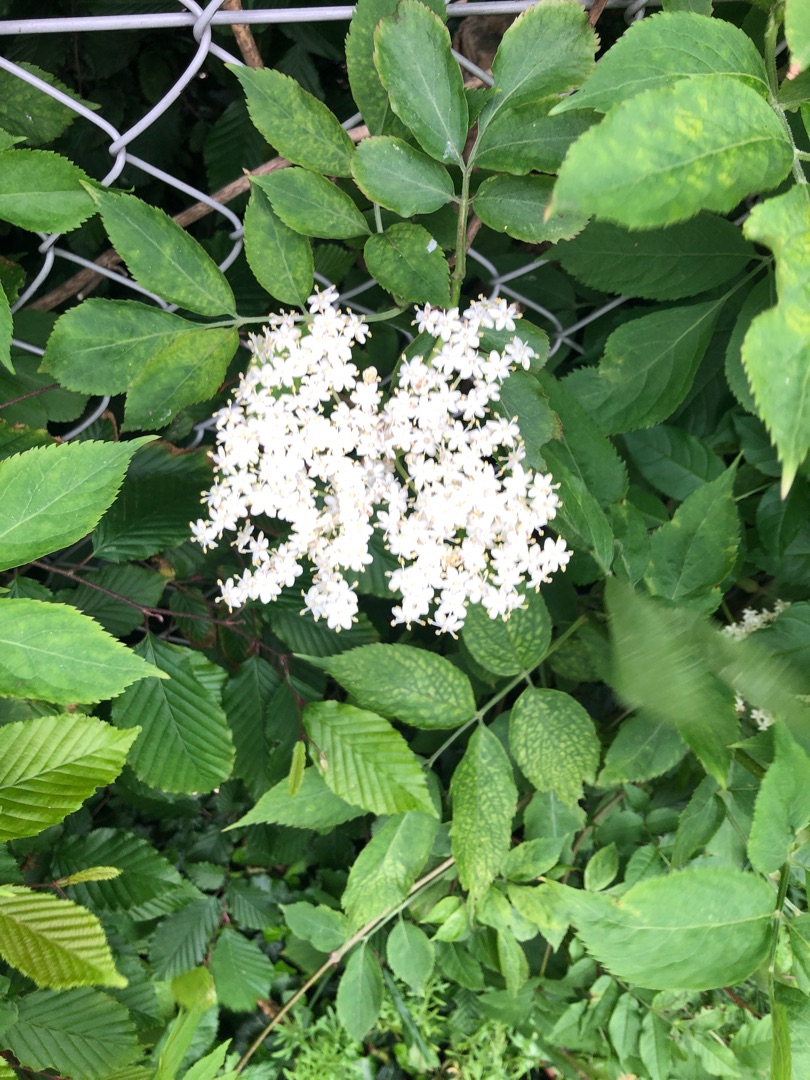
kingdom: Plantae
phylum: Tracheophyta
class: Magnoliopsida
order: Dipsacales
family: Viburnaceae
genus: Sambucus
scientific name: Sambucus nigra
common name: Almindelig hyld
